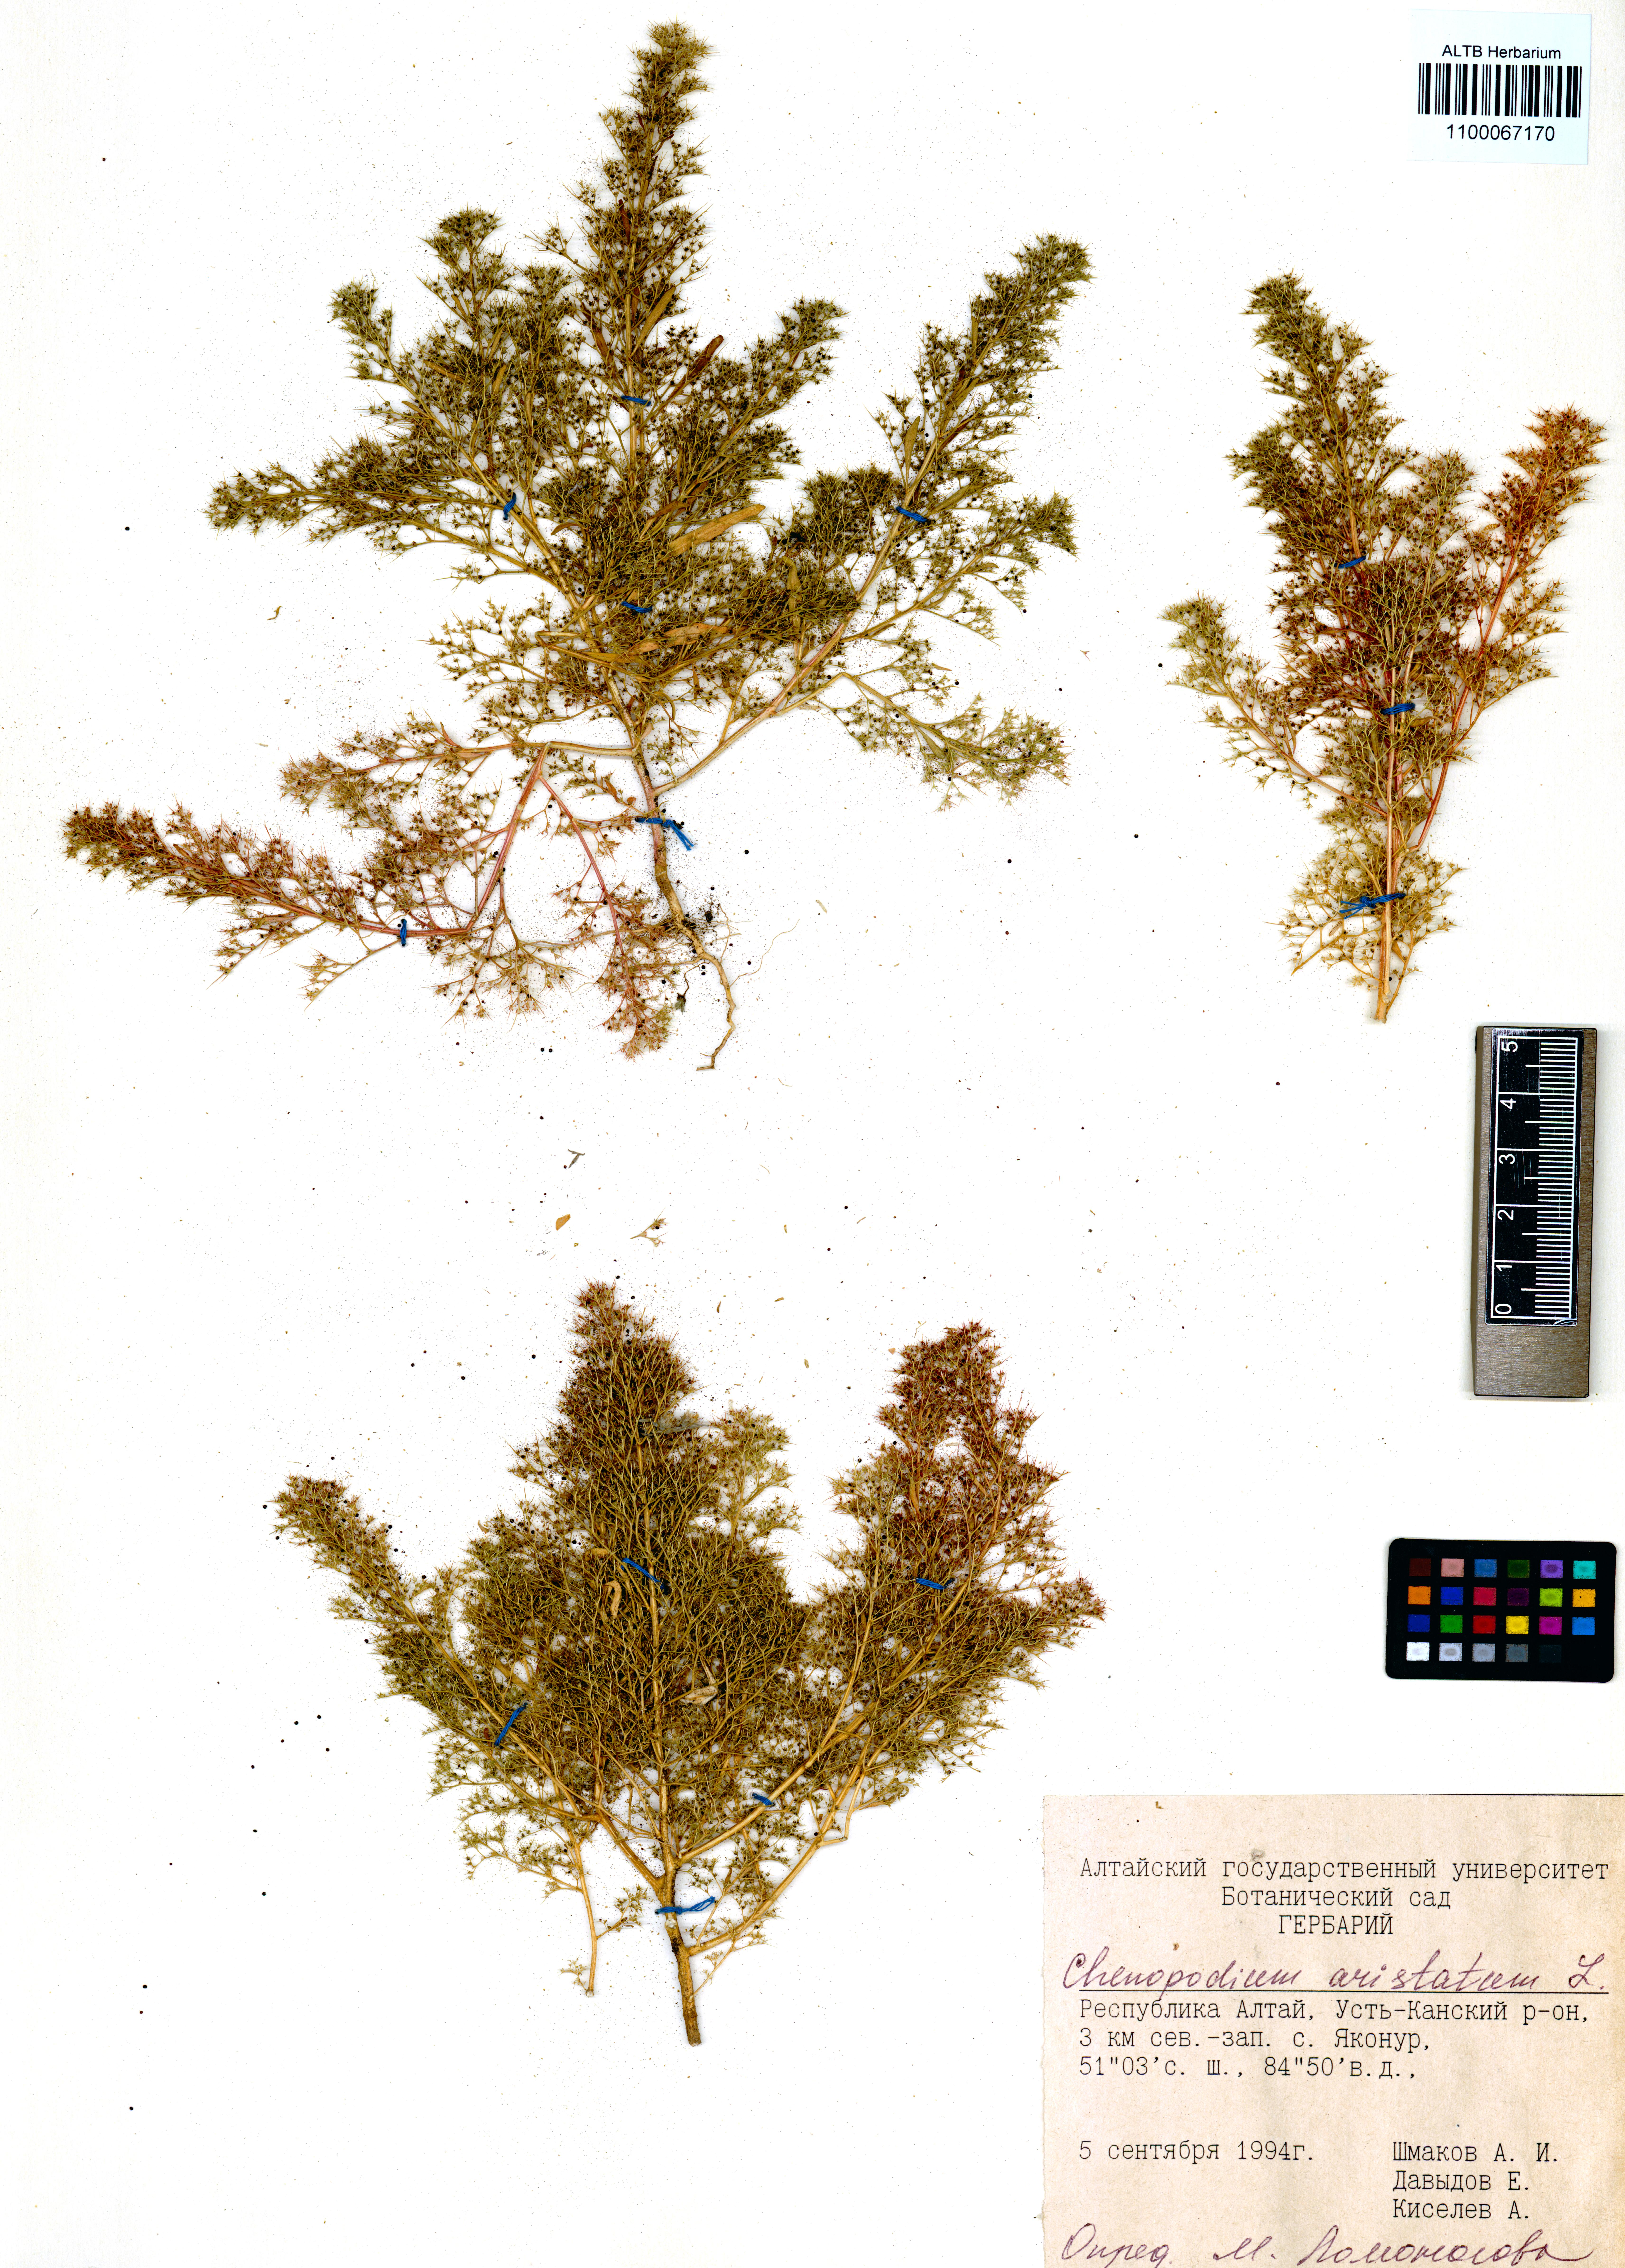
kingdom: Plantae
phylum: Tracheophyta
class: Magnoliopsida
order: Caryophyllales
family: Amaranthaceae
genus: Teloxys
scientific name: Teloxys aristata
